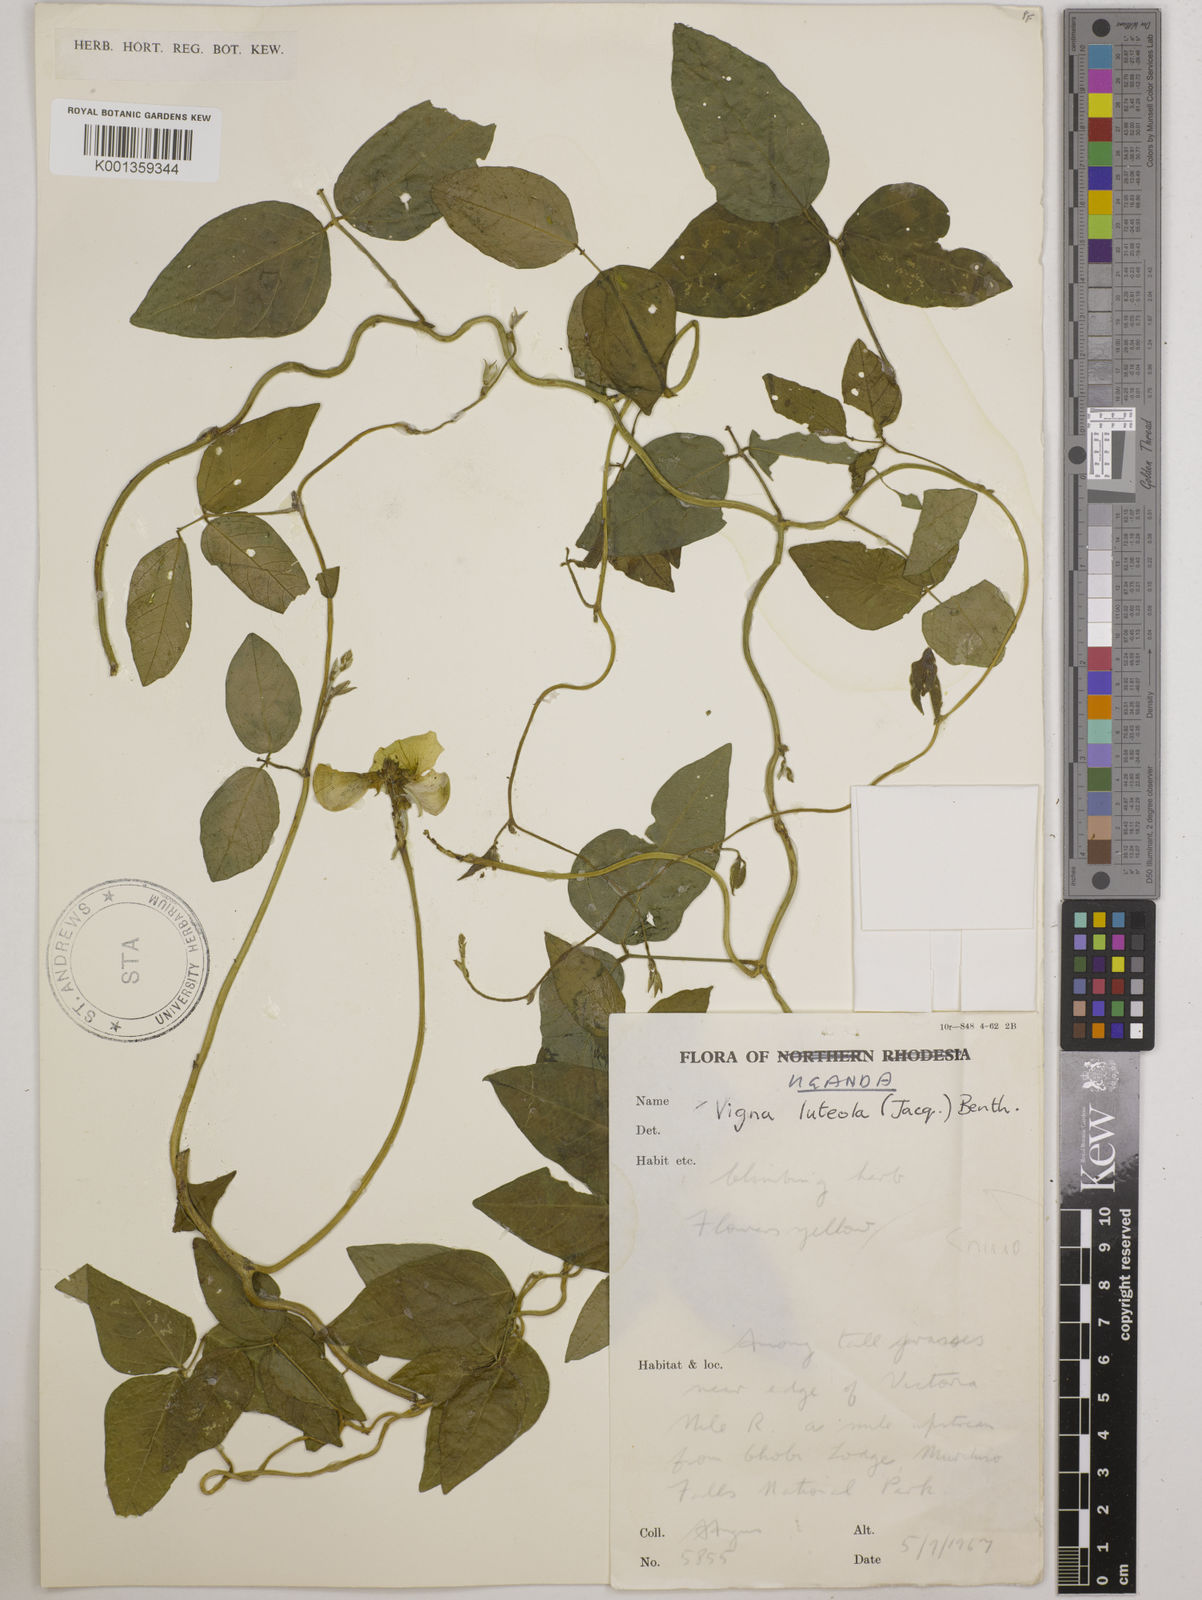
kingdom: Plantae
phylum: Tracheophyta
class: Magnoliopsida
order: Fabales
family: Fabaceae
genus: Vigna
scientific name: Vigna luteola
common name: Hairypod cowpea
